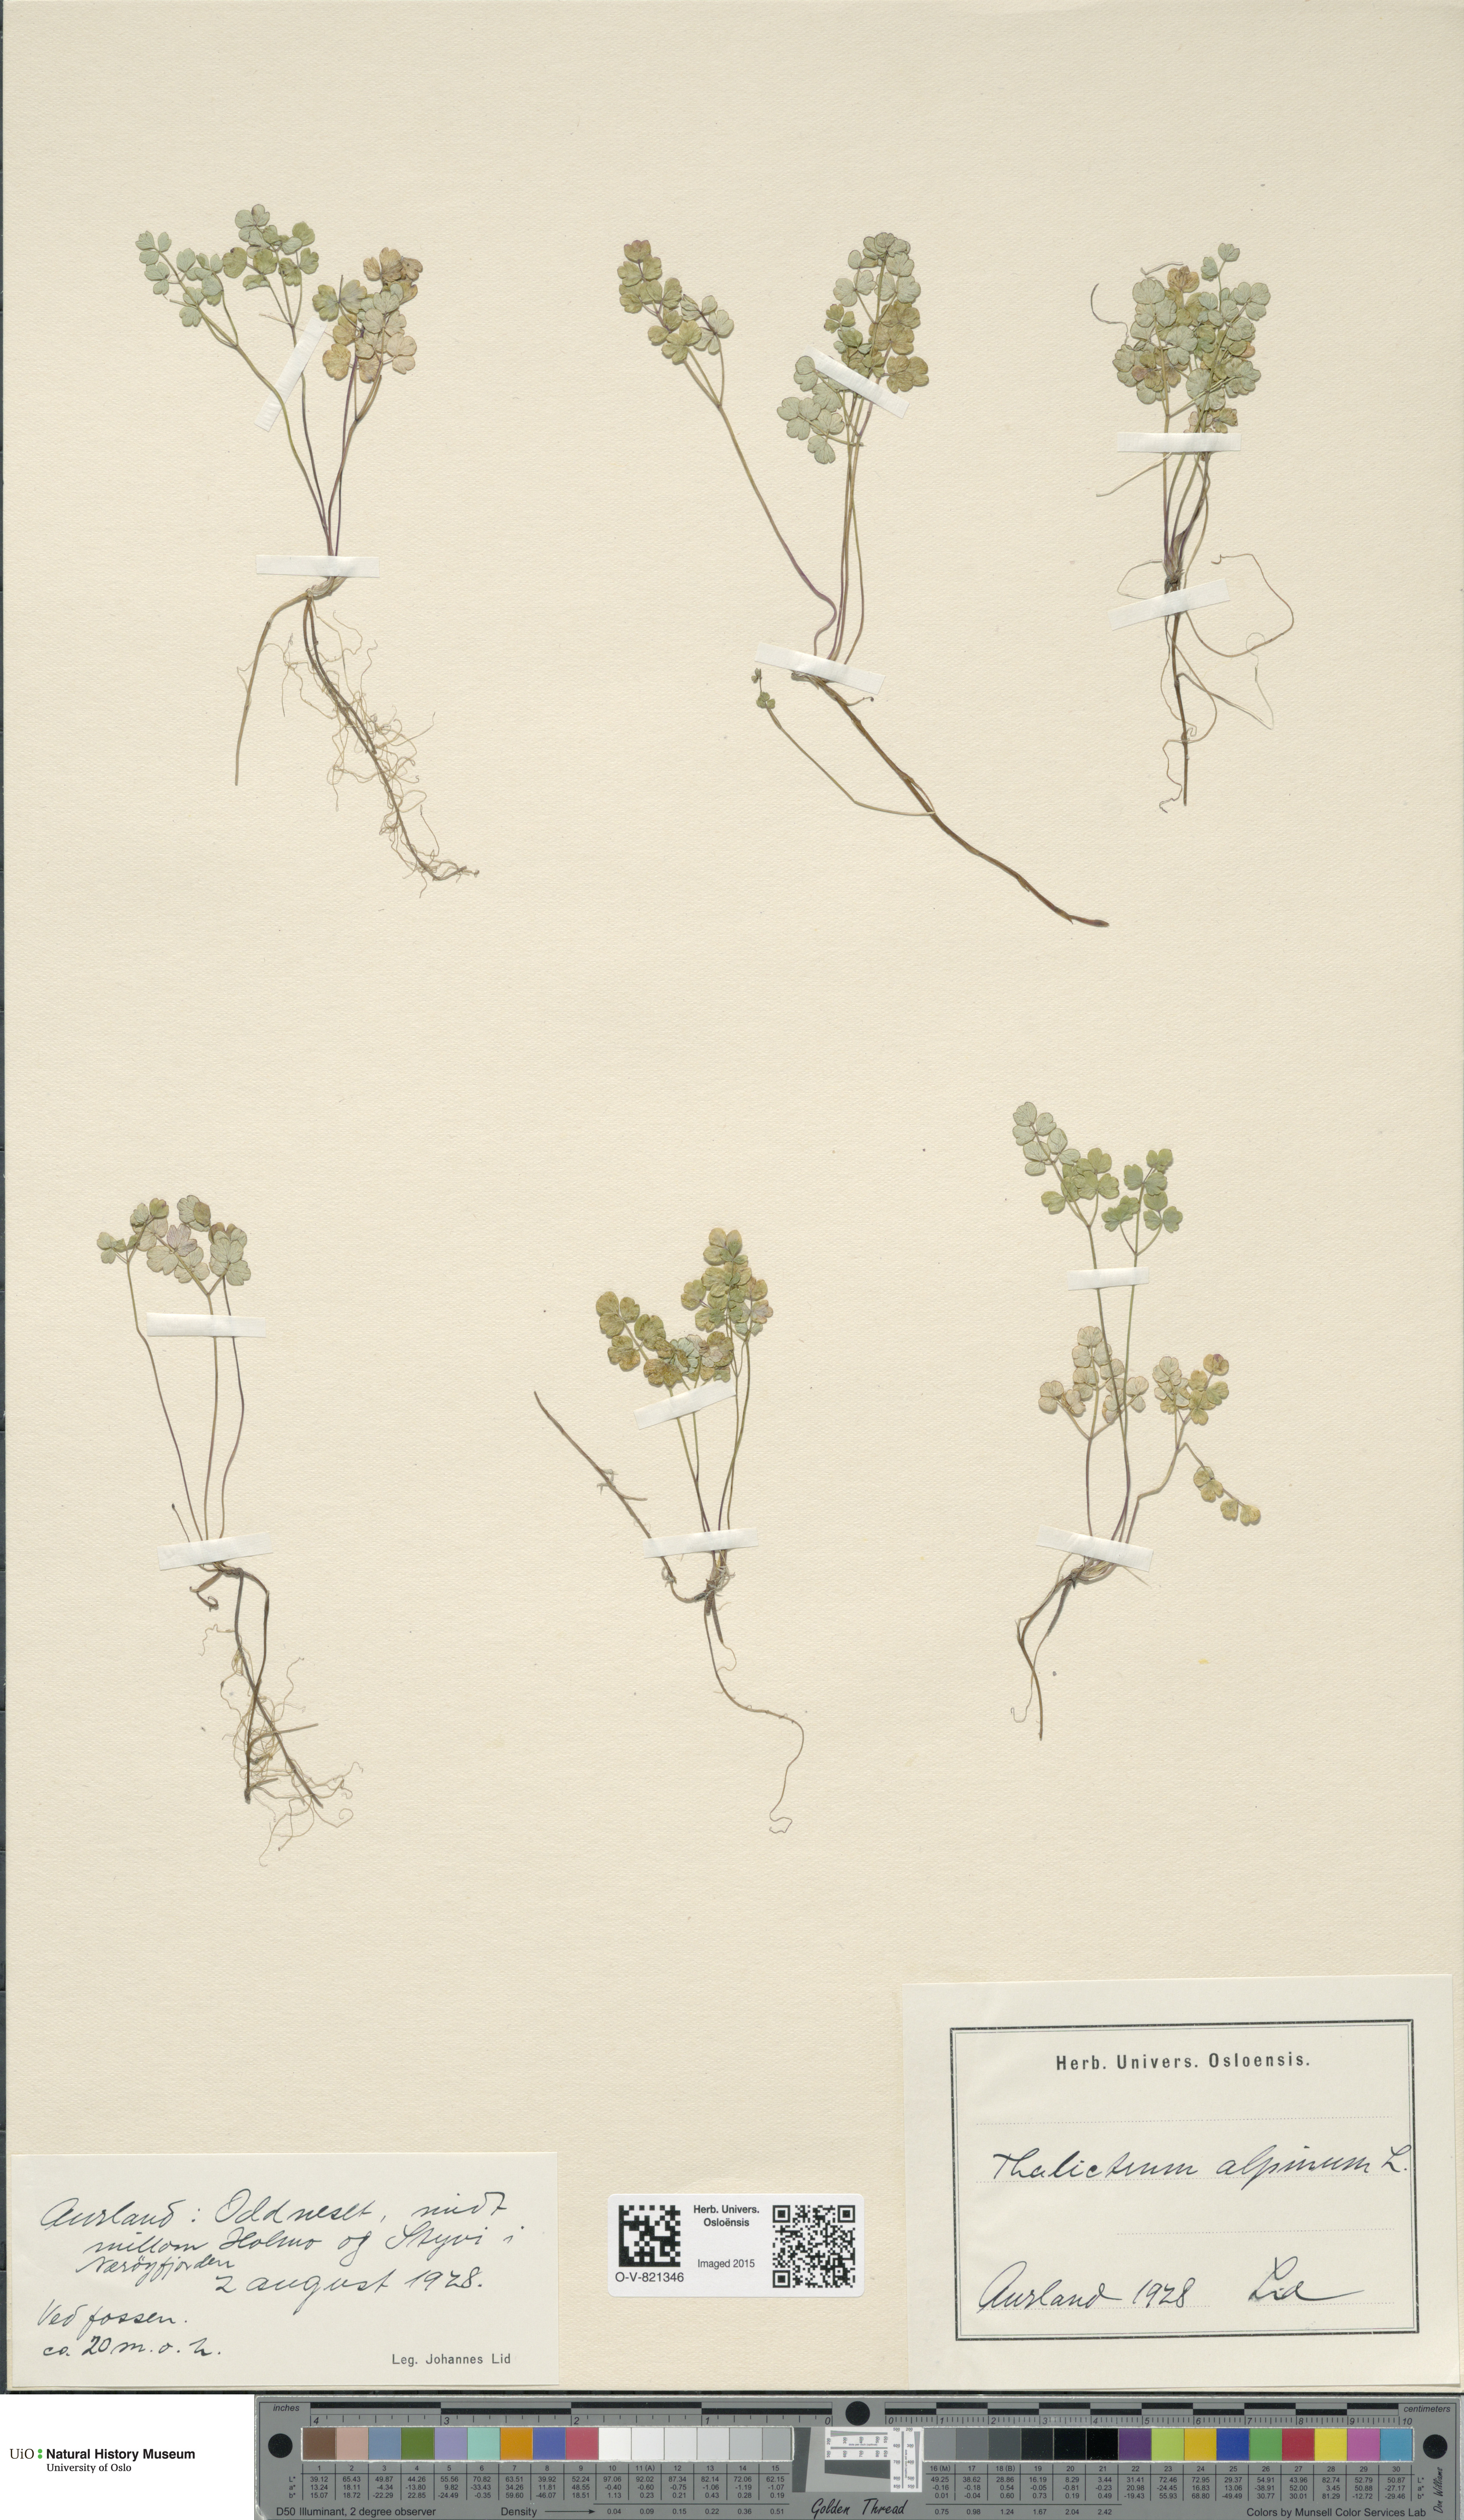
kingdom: Plantae
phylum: Tracheophyta
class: Magnoliopsida
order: Ranunculales
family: Ranunculaceae
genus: Thalictrum
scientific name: Thalictrum alpinum
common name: Alpine meadow-rue
